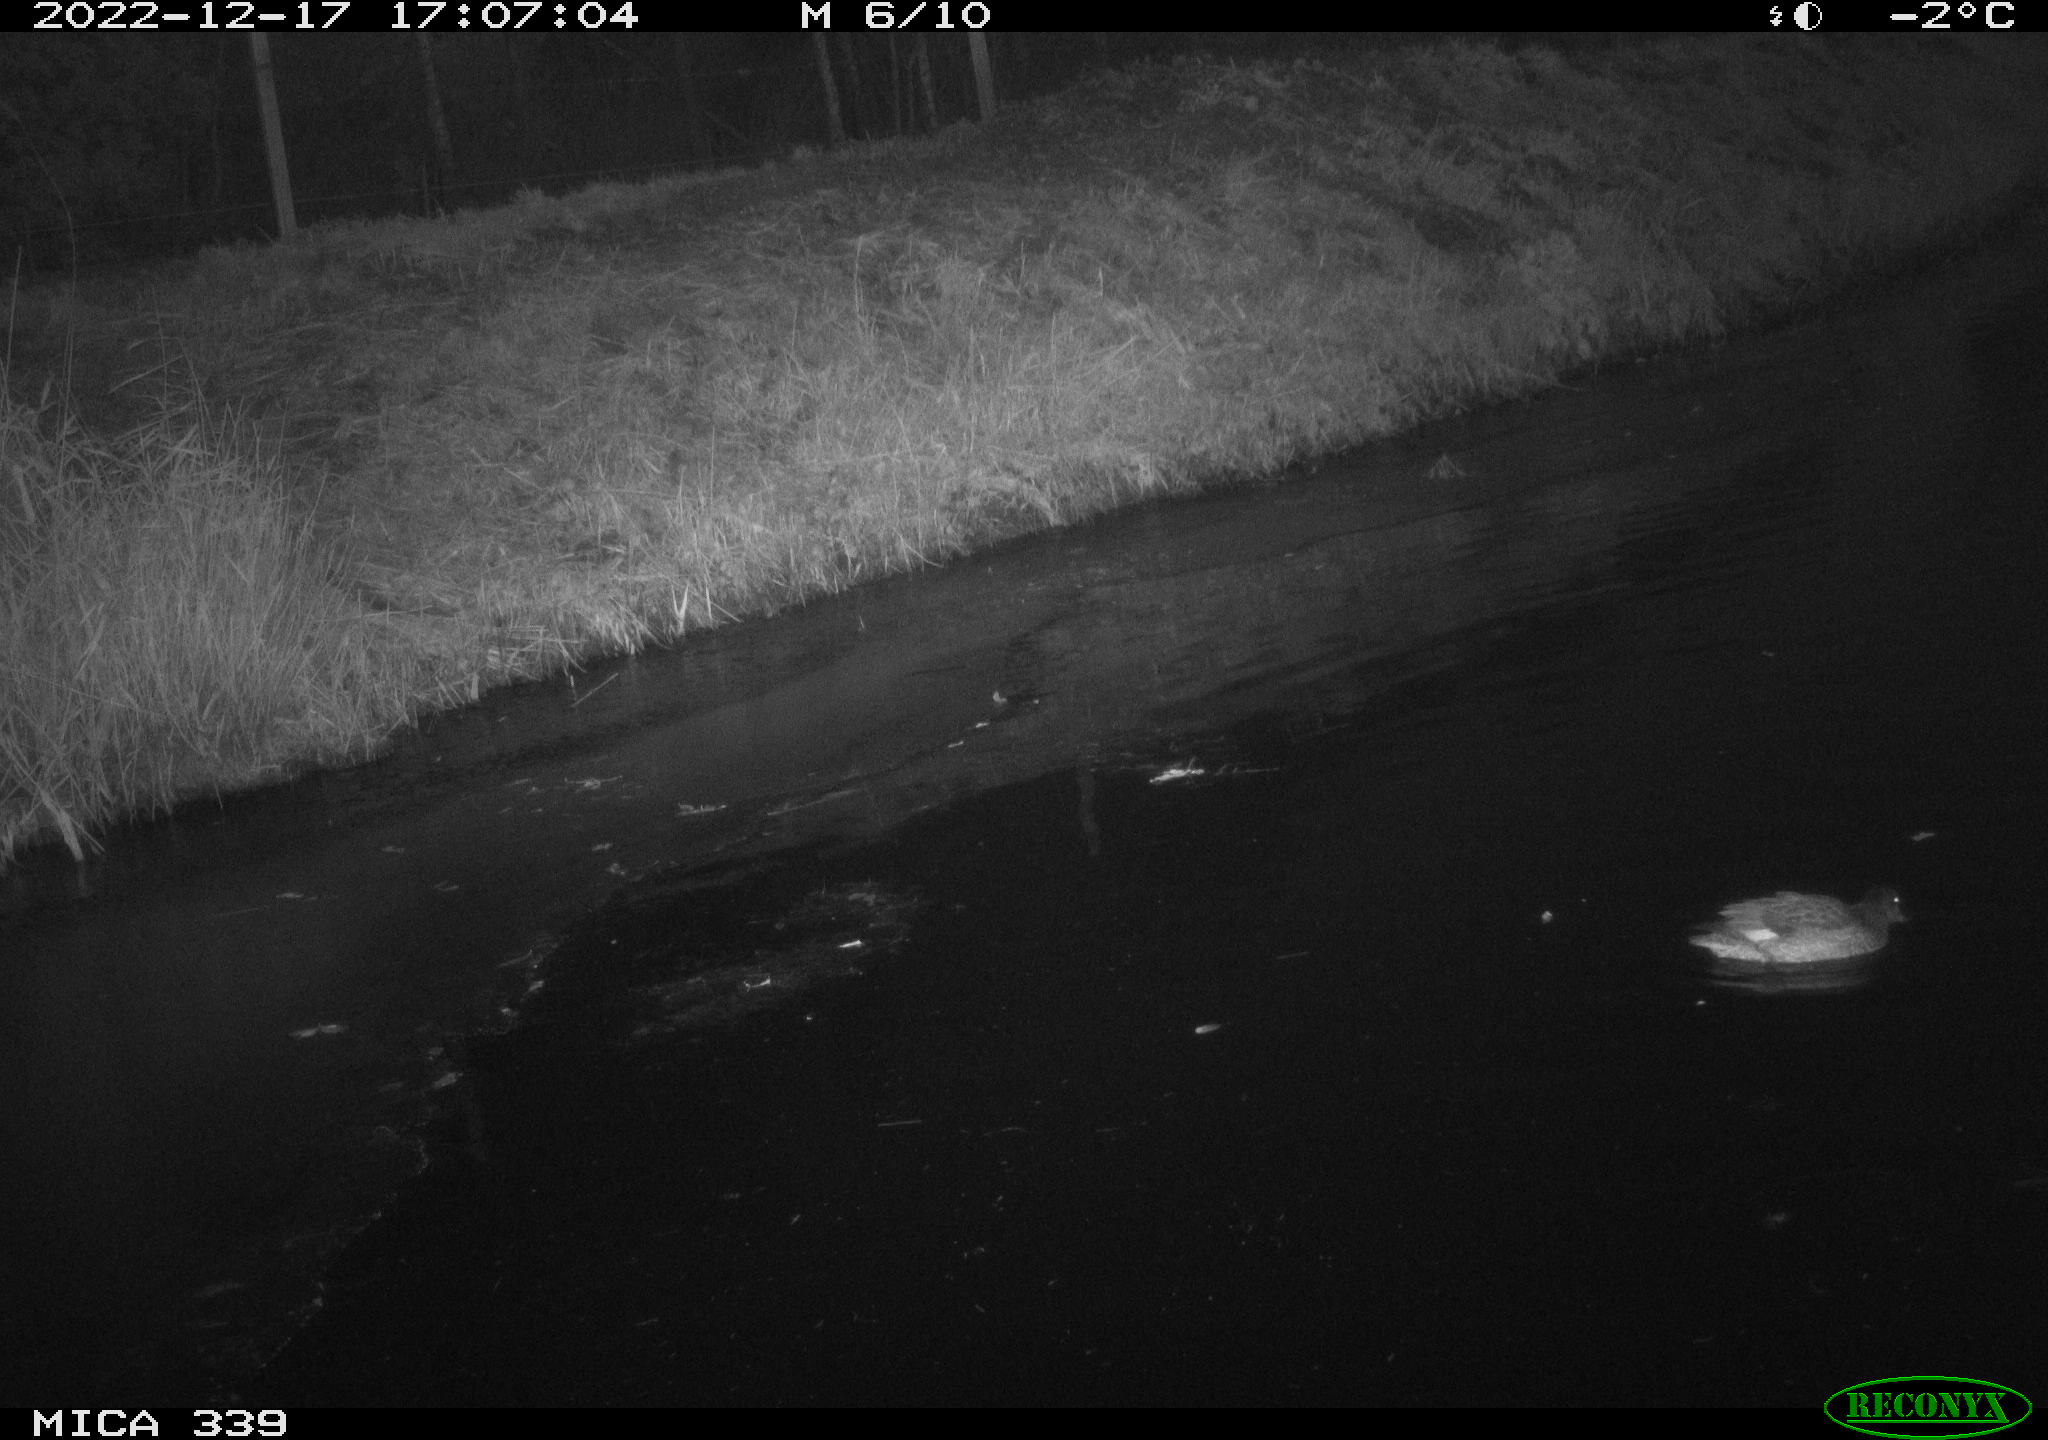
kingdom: Animalia
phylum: Chordata
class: Aves
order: Anseriformes
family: Anatidae
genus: Anas
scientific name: Anas
